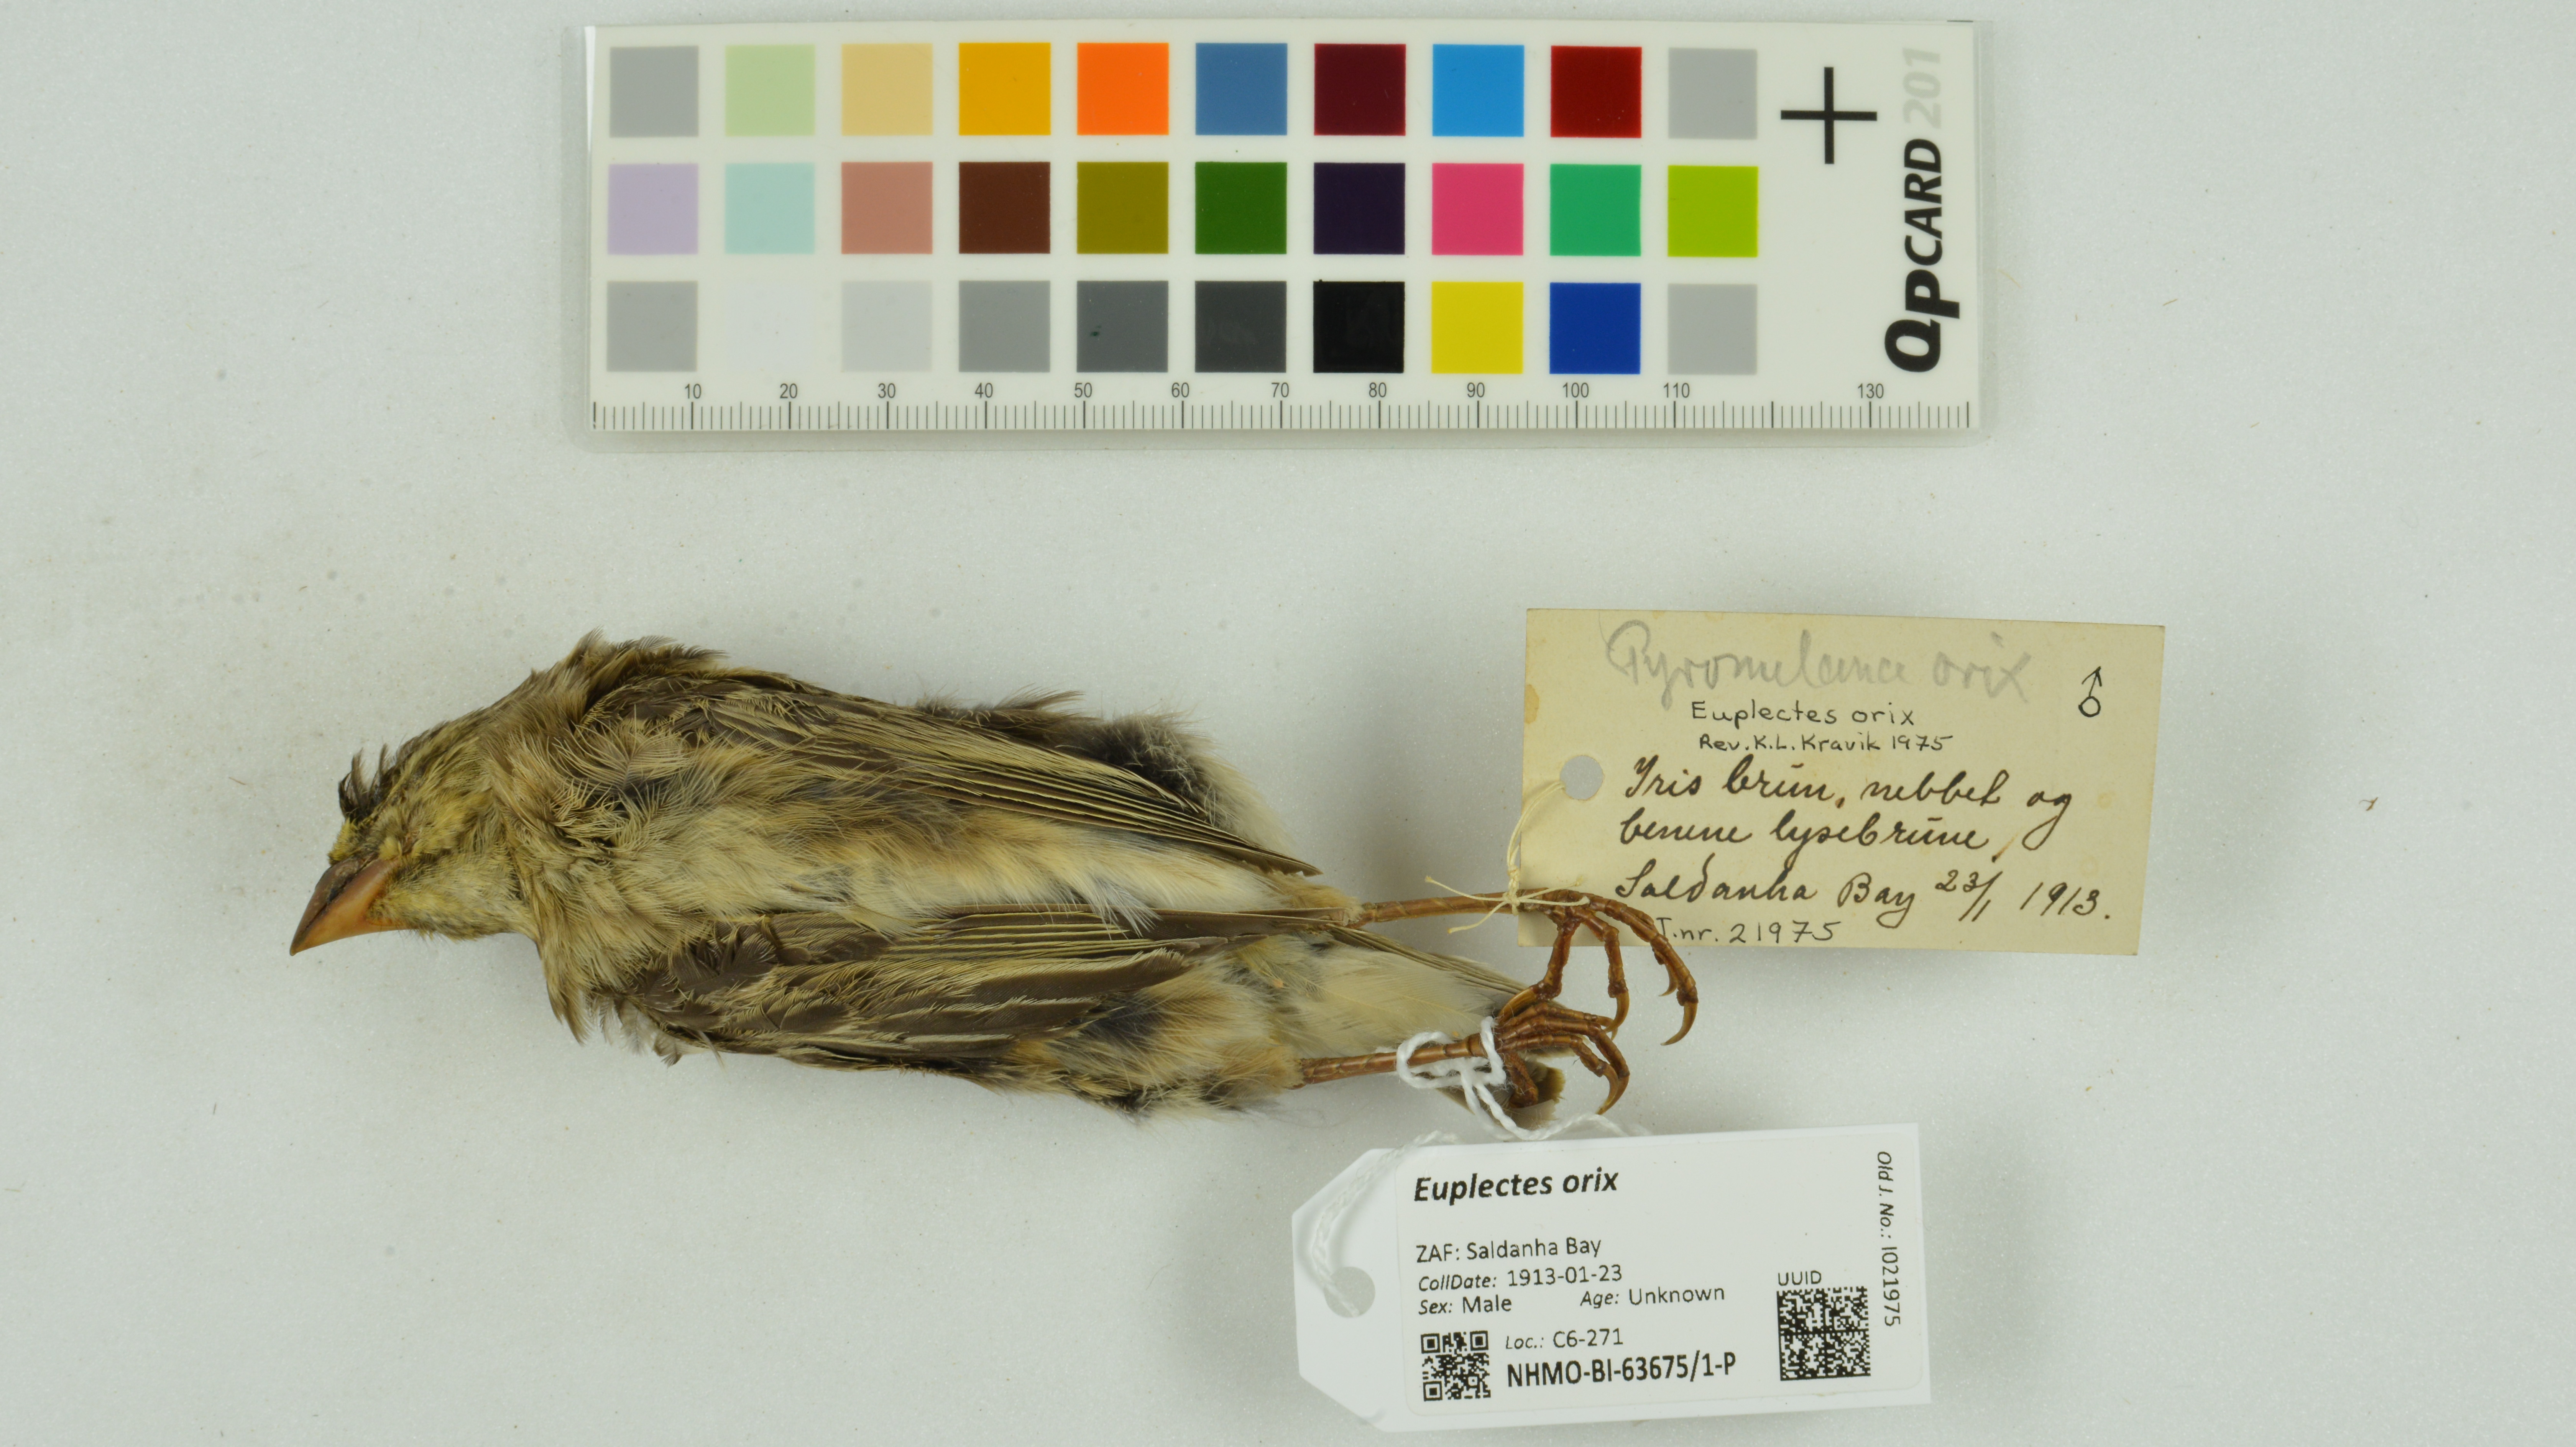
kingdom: Animalia
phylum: Chordata
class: Aves
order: Passeriformes
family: Ploceidae
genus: Euplectes
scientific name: Euplectes orix
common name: Southern red bishop
